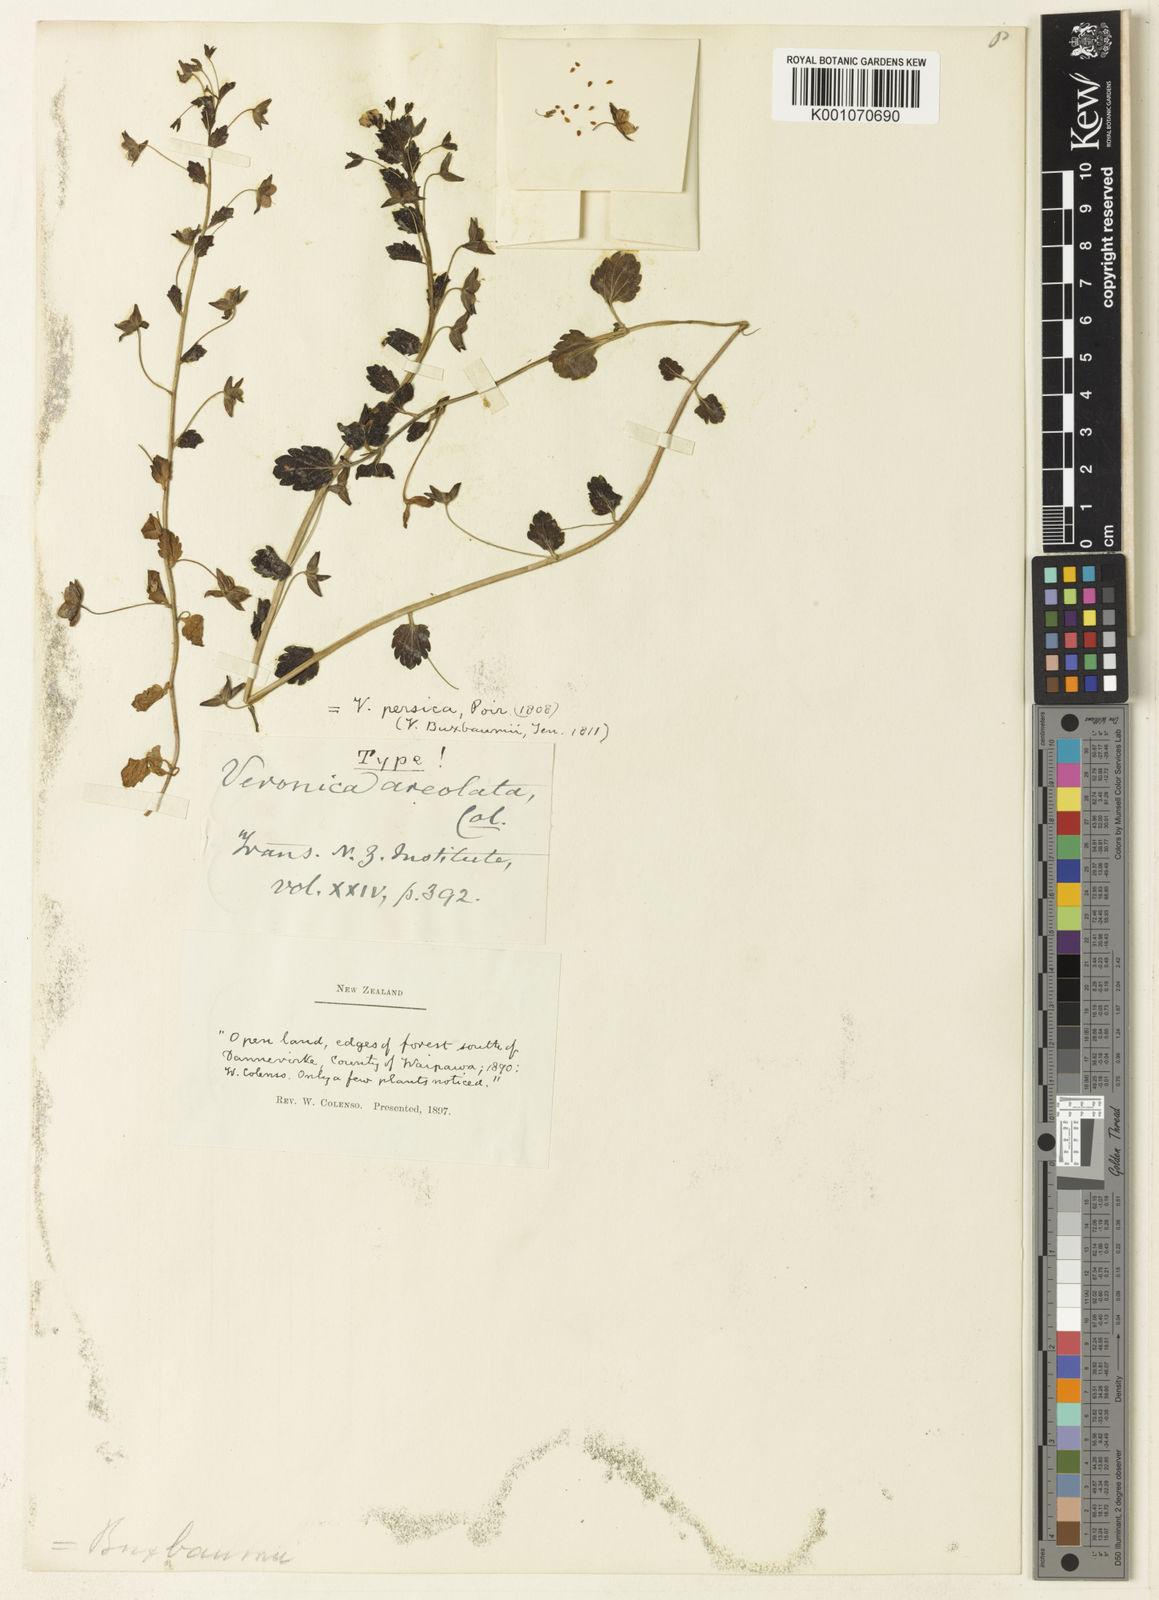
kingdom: Plantae
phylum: Tracheophyta
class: Magnoliopsida
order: Lamiales
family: Plantaginaceae
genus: Veronica
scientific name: Veronica
